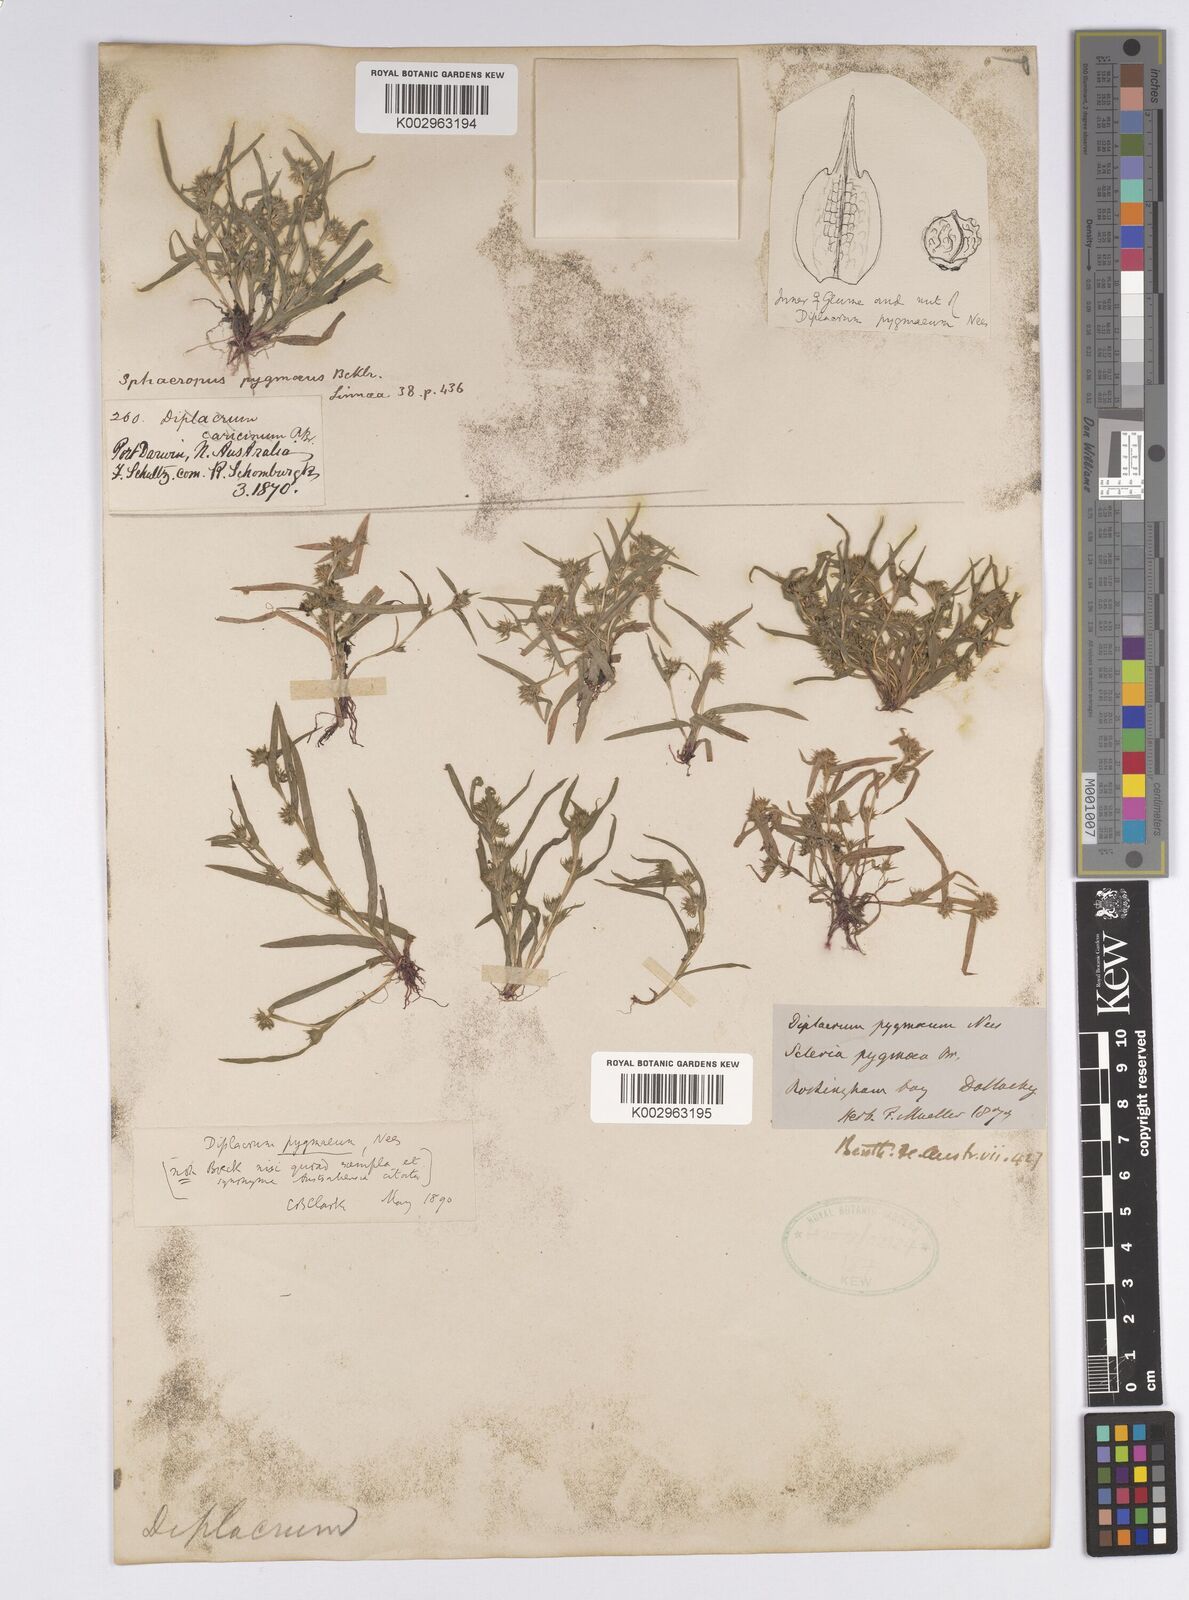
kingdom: Plantae
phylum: Tracheophyta
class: Liliopsida
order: Poales
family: Cyperaceae
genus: Diplacrum
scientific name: Diplacrum pygmaeum
